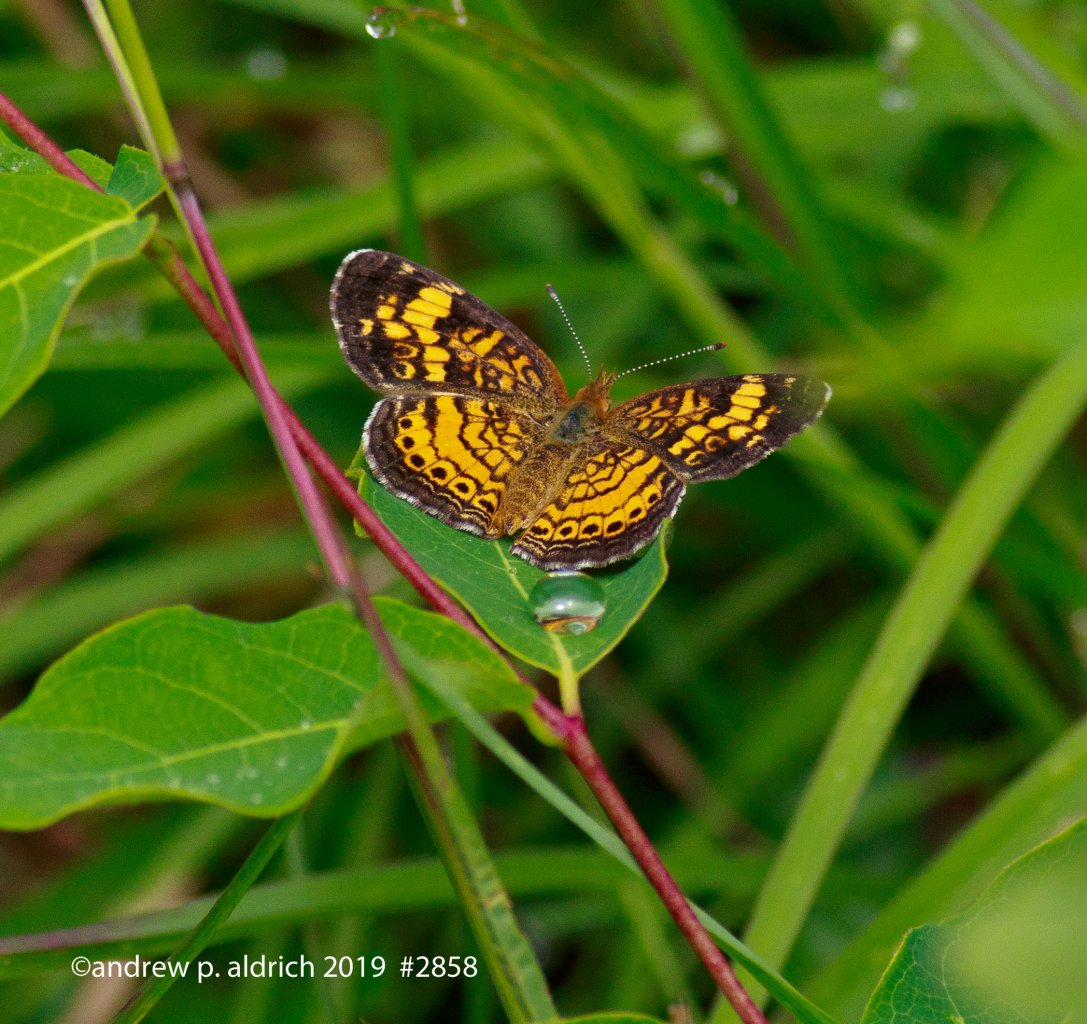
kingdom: Animalia
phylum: Arthropoda
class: Insecta
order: Lepidoptera
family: Nymphalidae
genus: Phyciodes
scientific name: Phyciodes
